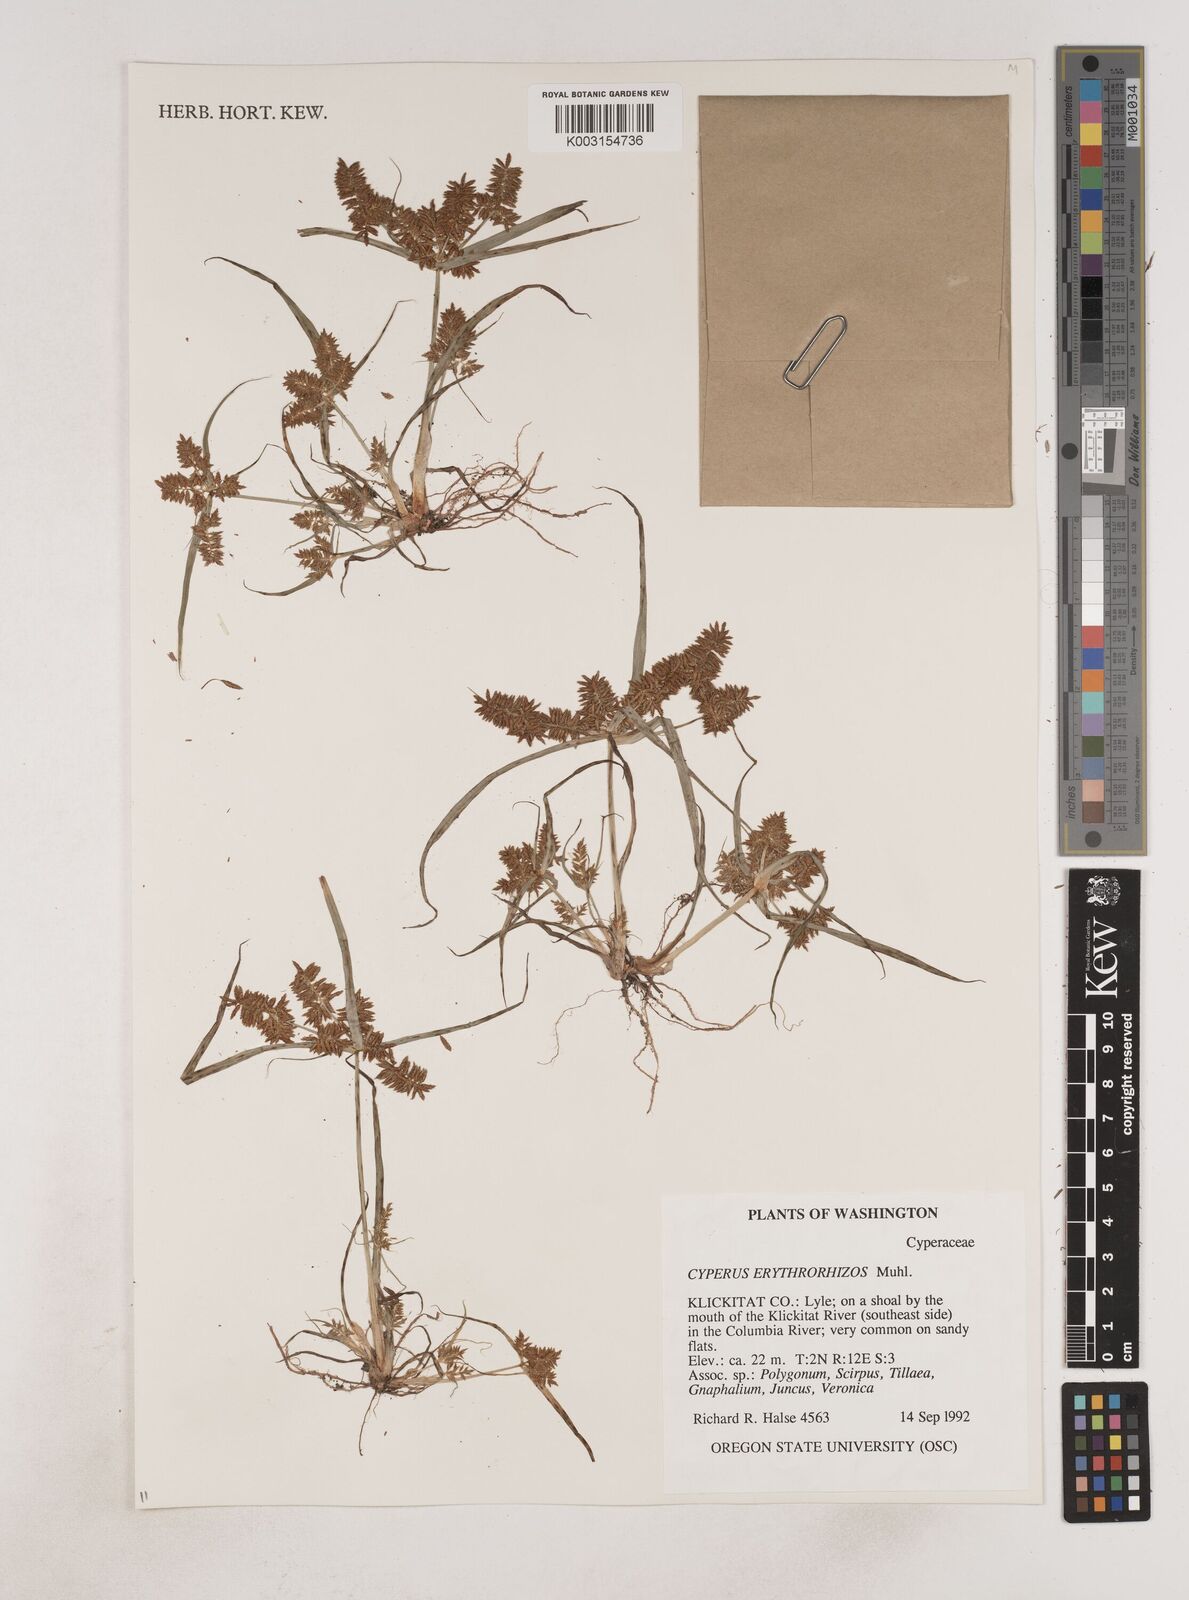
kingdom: Plantae
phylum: Tracheophyta
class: Liliopsida
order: Poales
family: Cyperaceae
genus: Cyperus
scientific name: Cyperus erythrorhizos
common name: Red-root flat sedge
